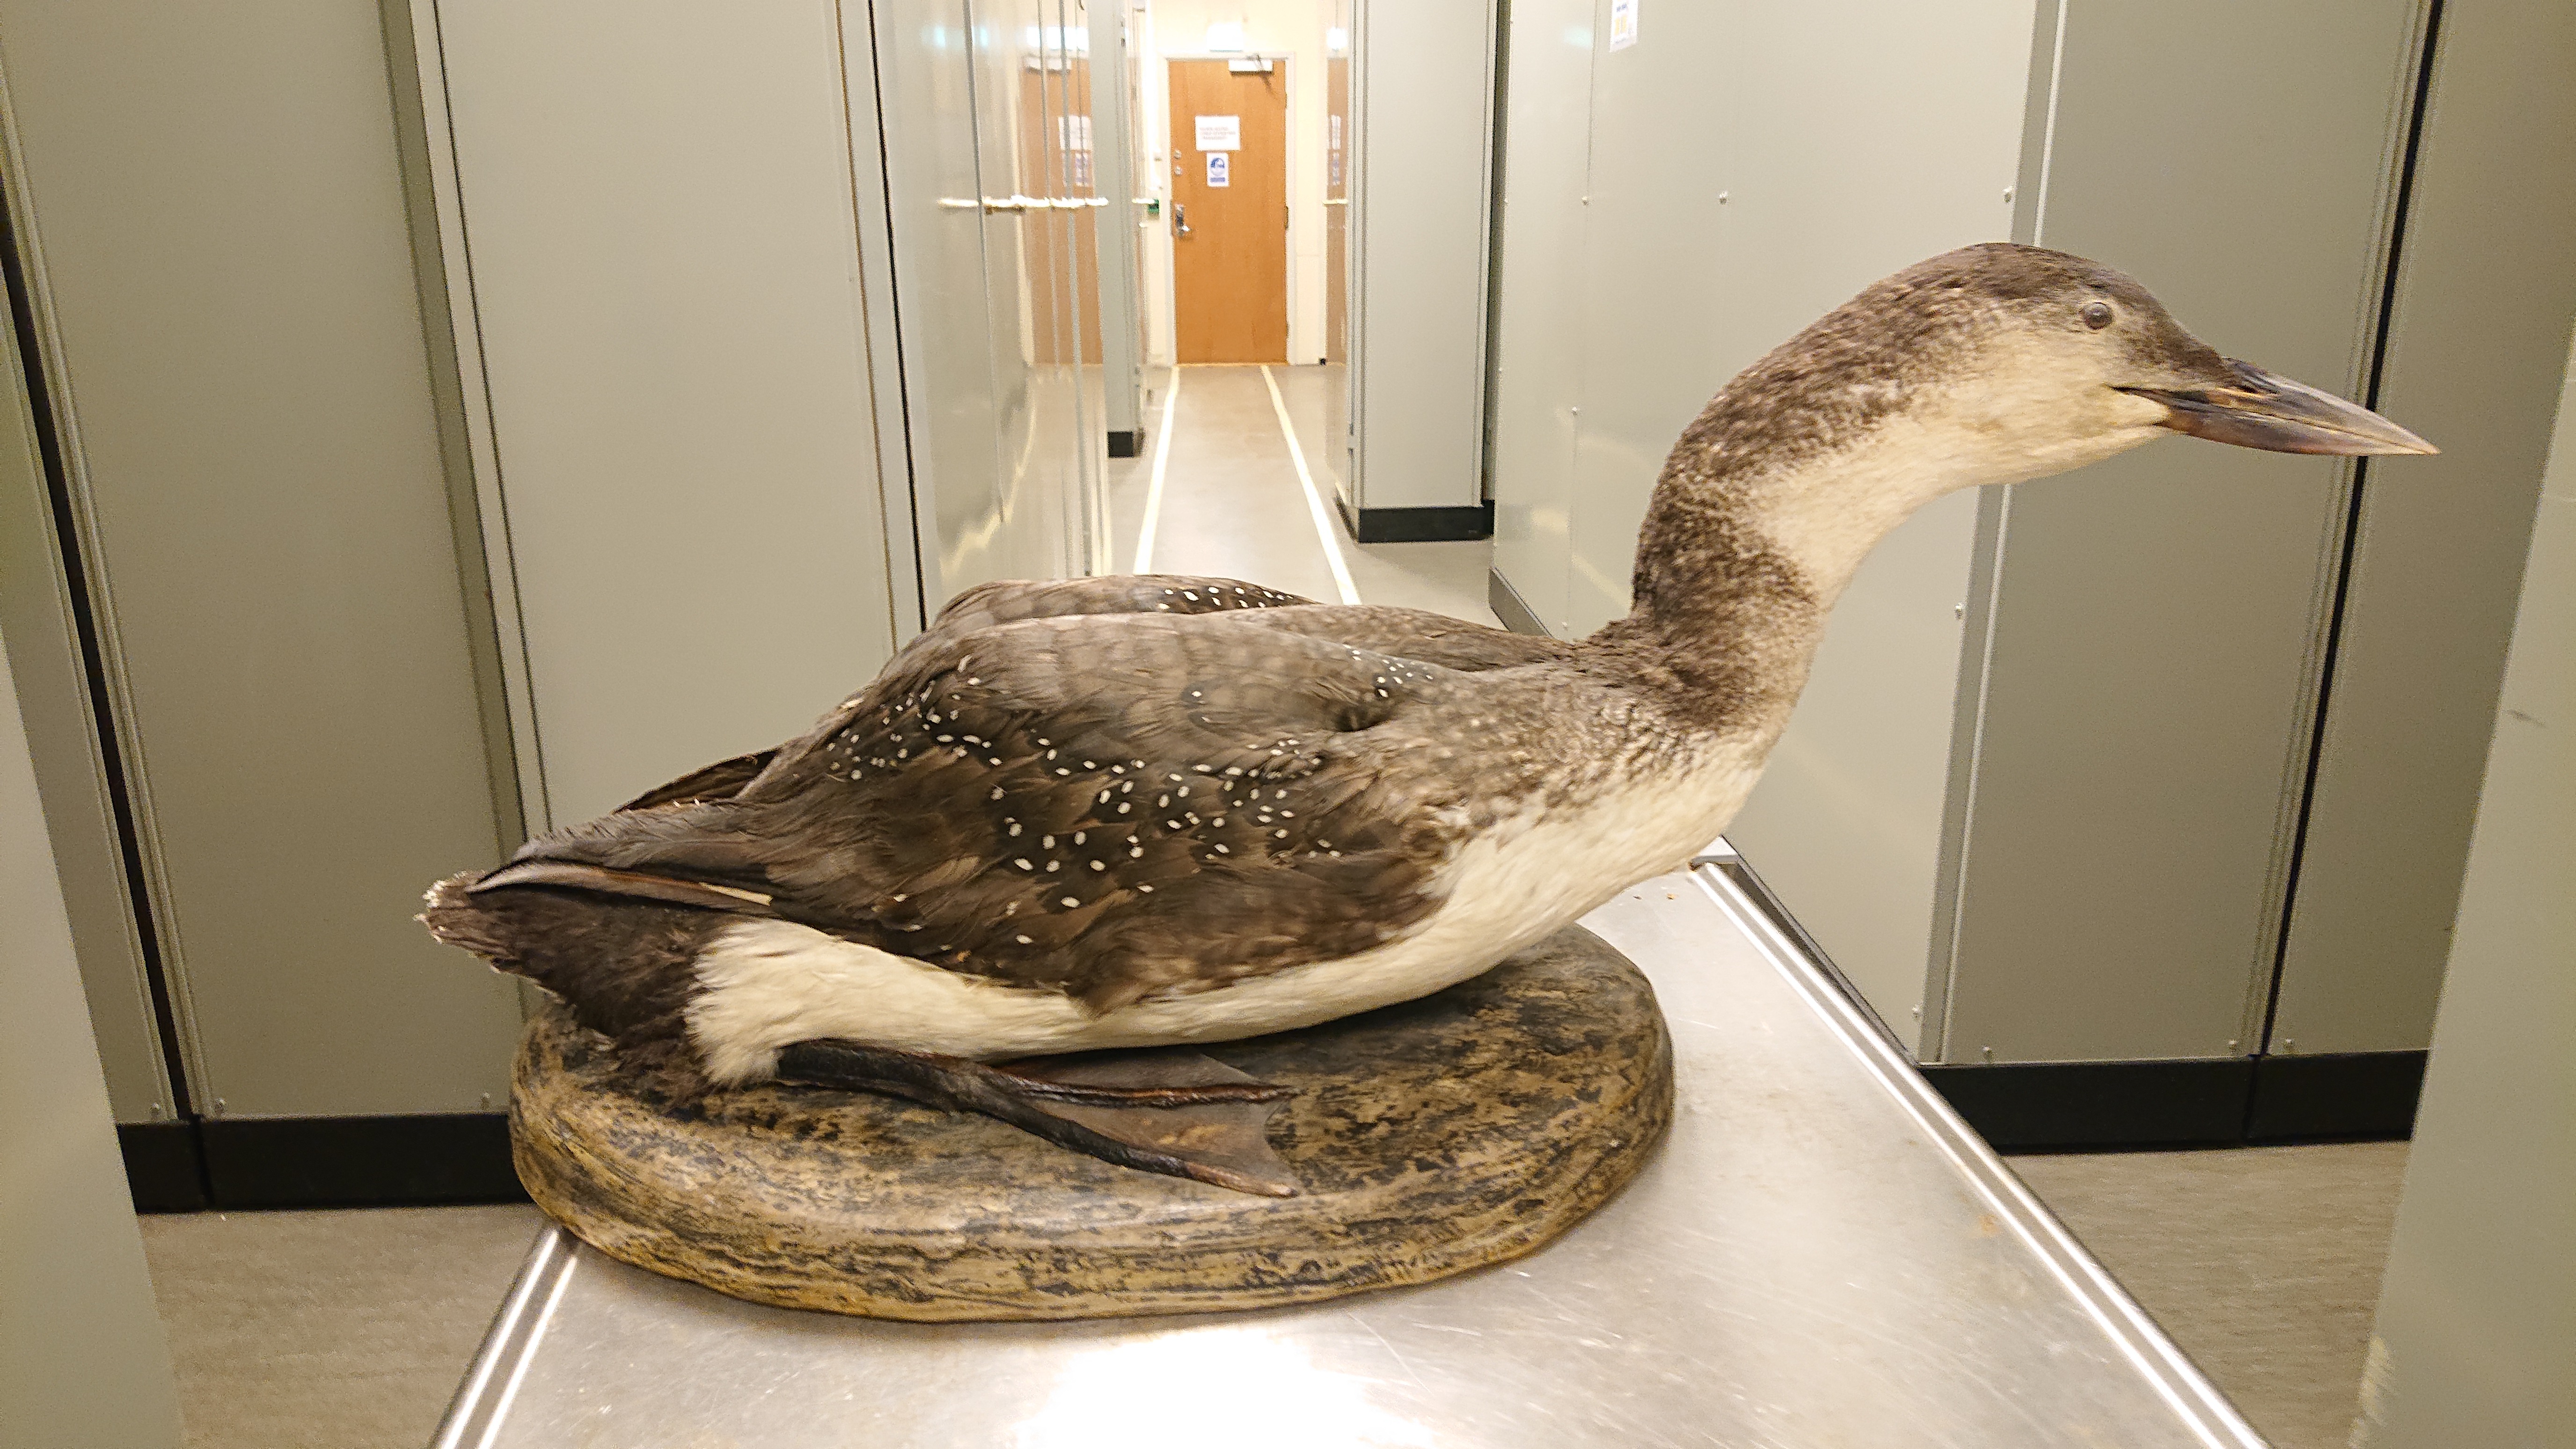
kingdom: Animalia
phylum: Chordata
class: Aves
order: Gaviiformes
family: Gaviidae
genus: Gavia
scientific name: Gavia immer
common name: Common loon
